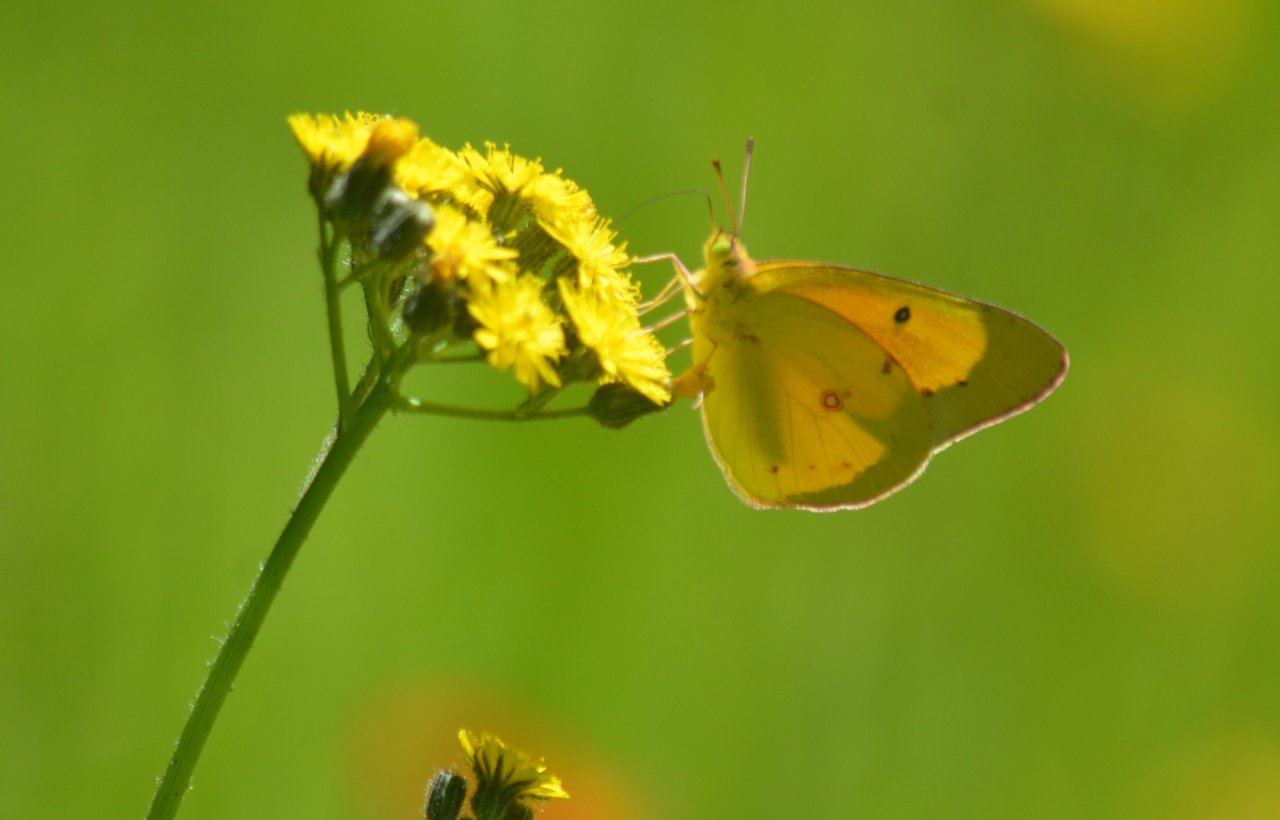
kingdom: Animalia
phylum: Arthropoda
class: Insecta
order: Lepidoptera
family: Pieridae
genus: Colias
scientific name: Colias philodice
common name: Clouded Sulphur
